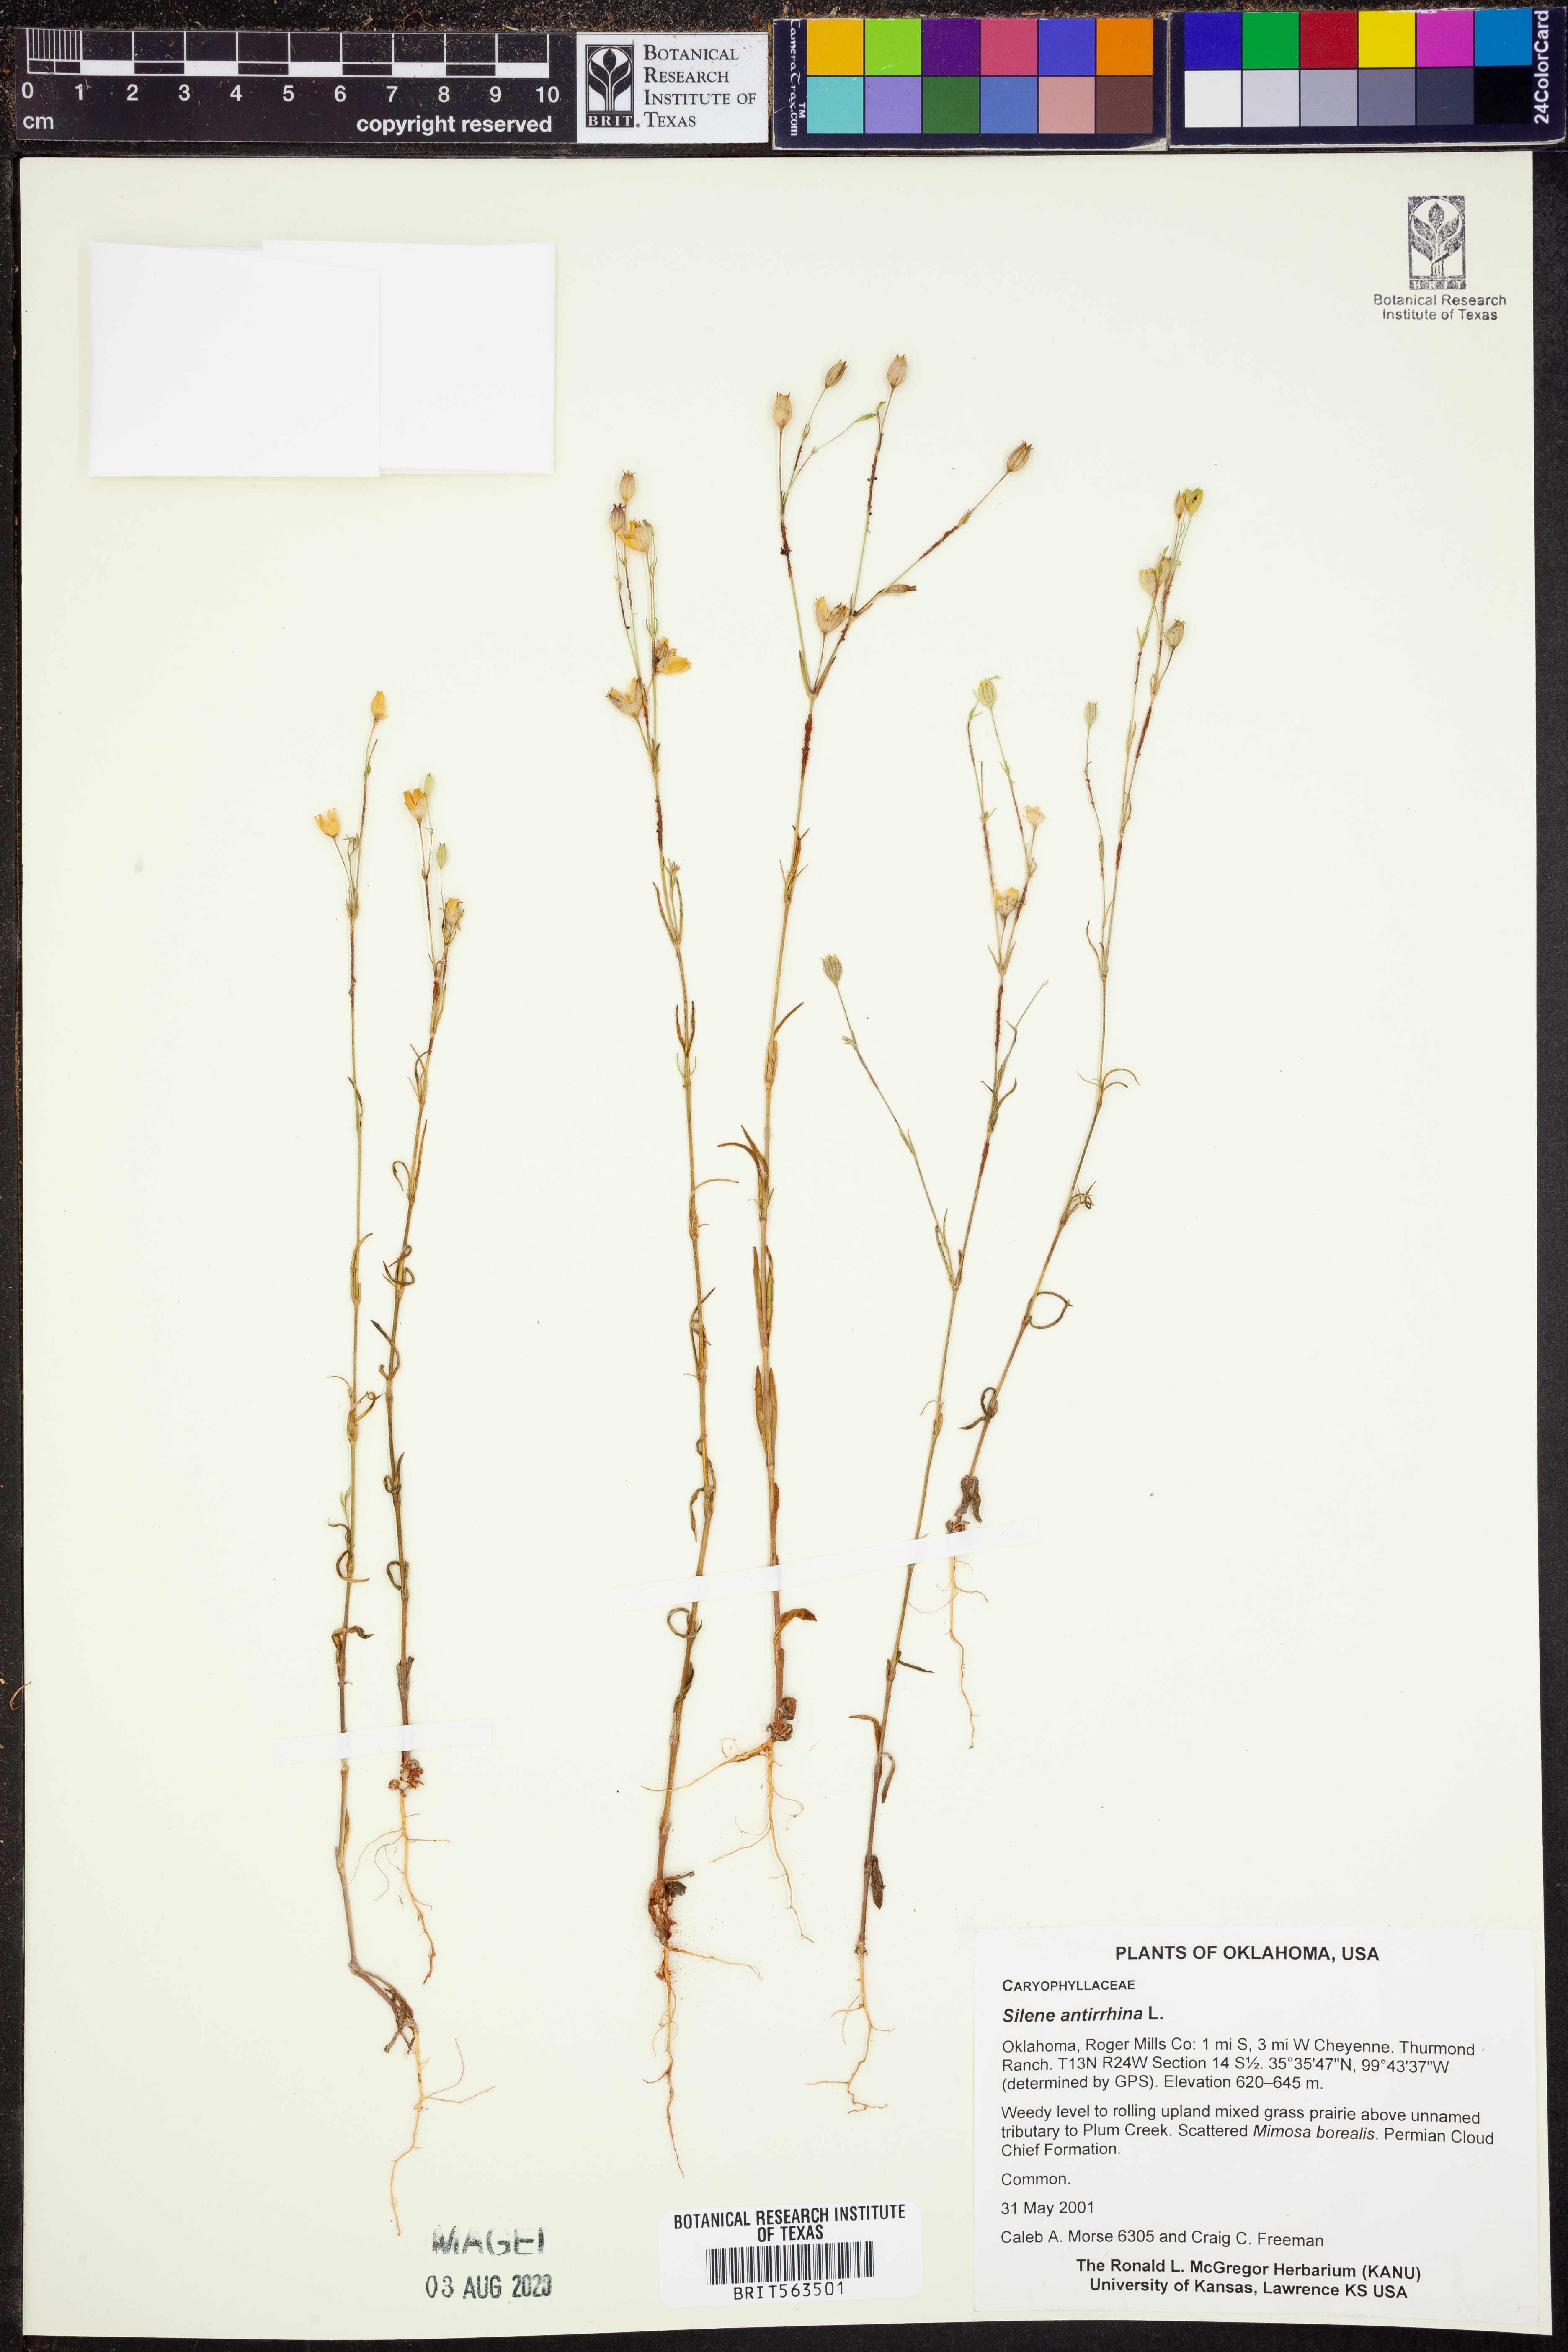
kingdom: Plantae
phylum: Tracheophyta
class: Magnoliopsida
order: Caryophyllales
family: Caryophyllaceae
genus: Silene
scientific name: Silene antirrhina
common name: Sleepy catchfly
